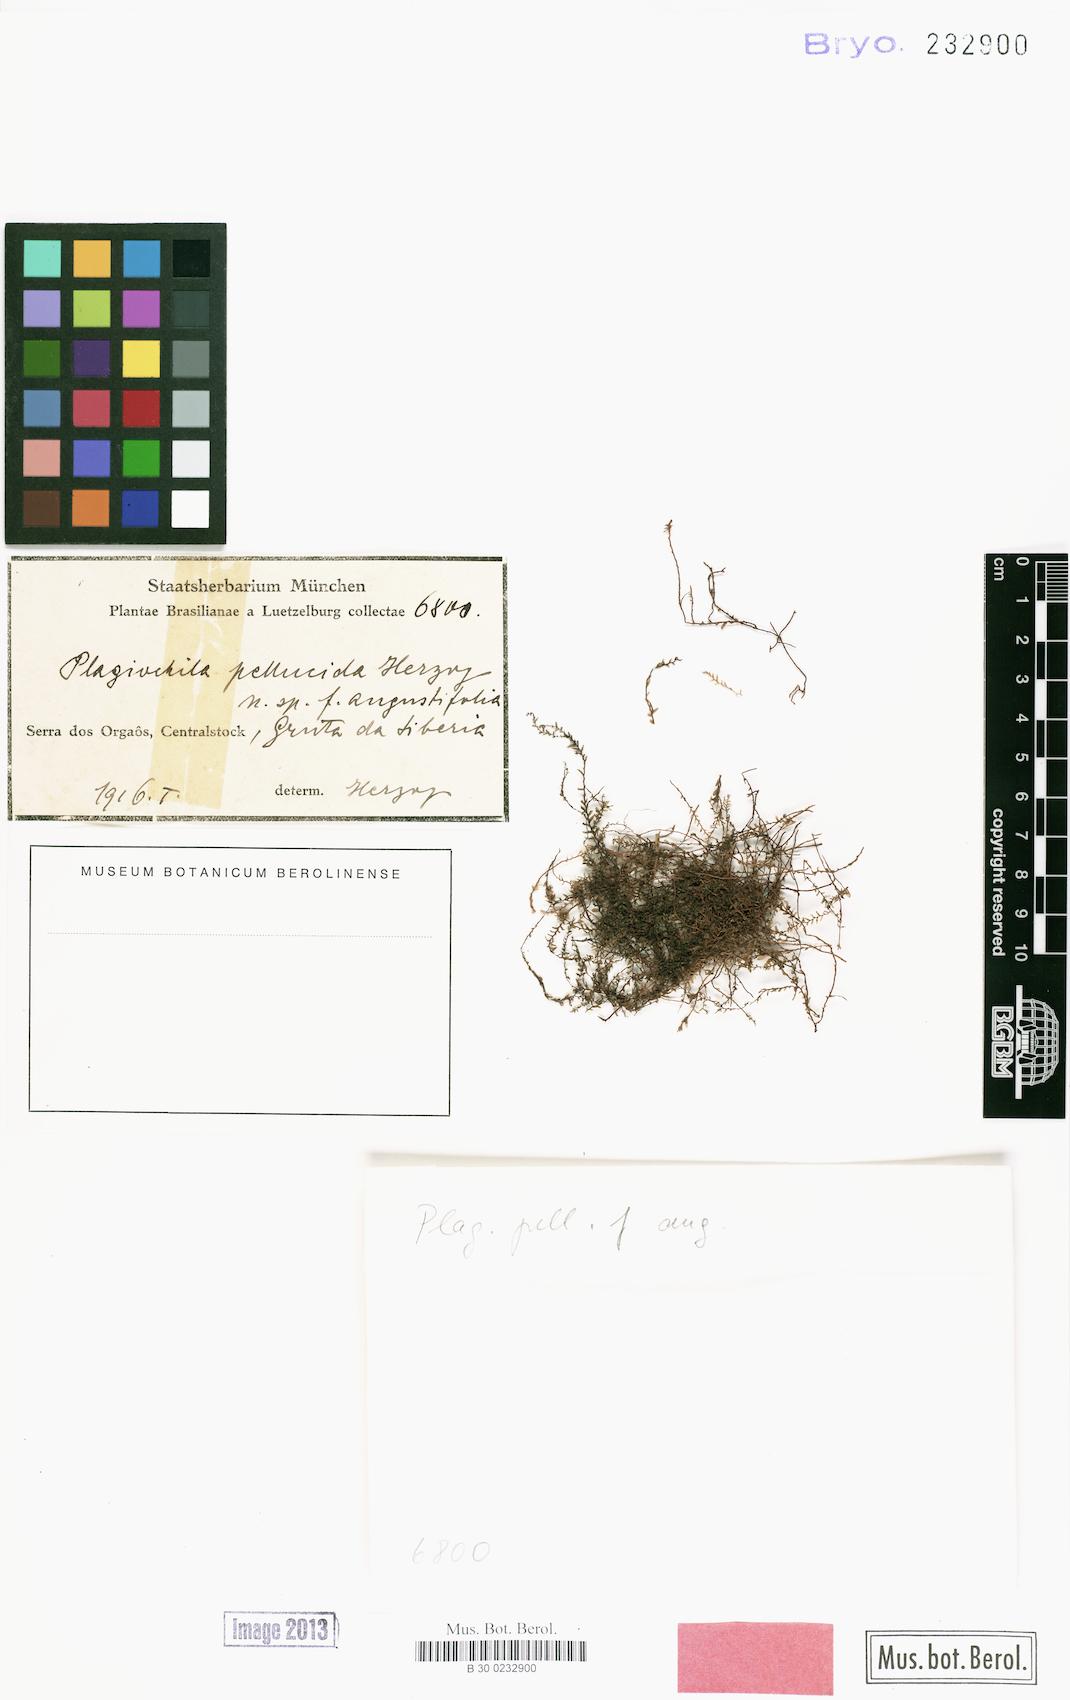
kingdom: Plantae
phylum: Marchantiophyta
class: Jungermanniopsida
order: Jungermanniales
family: Plagiochilaceae
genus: Plagiochila
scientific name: Plagiochila pellucida
